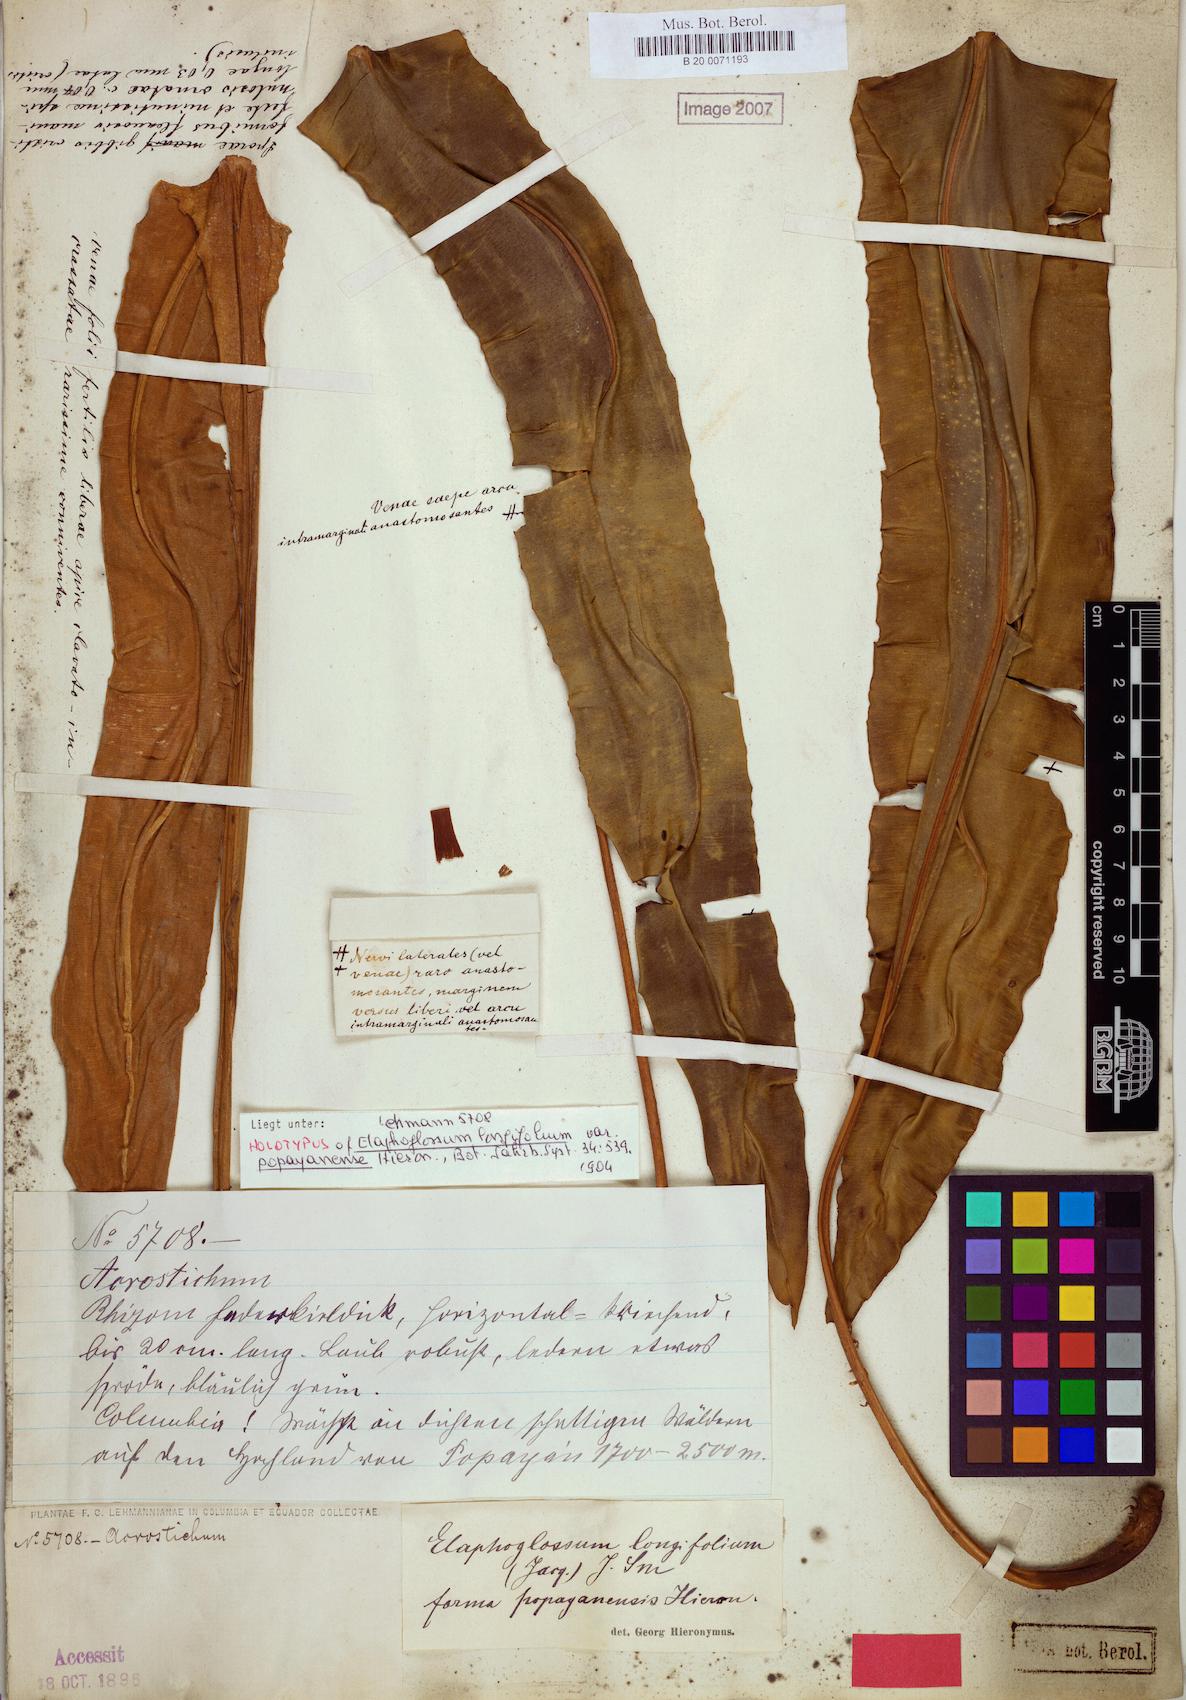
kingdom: Plantae
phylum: Tracheophyta
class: Polypodiopsida
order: Polypodiales
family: Dryopteridaceae
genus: Elaphoglossum
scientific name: Elaphoglossum longifolium
